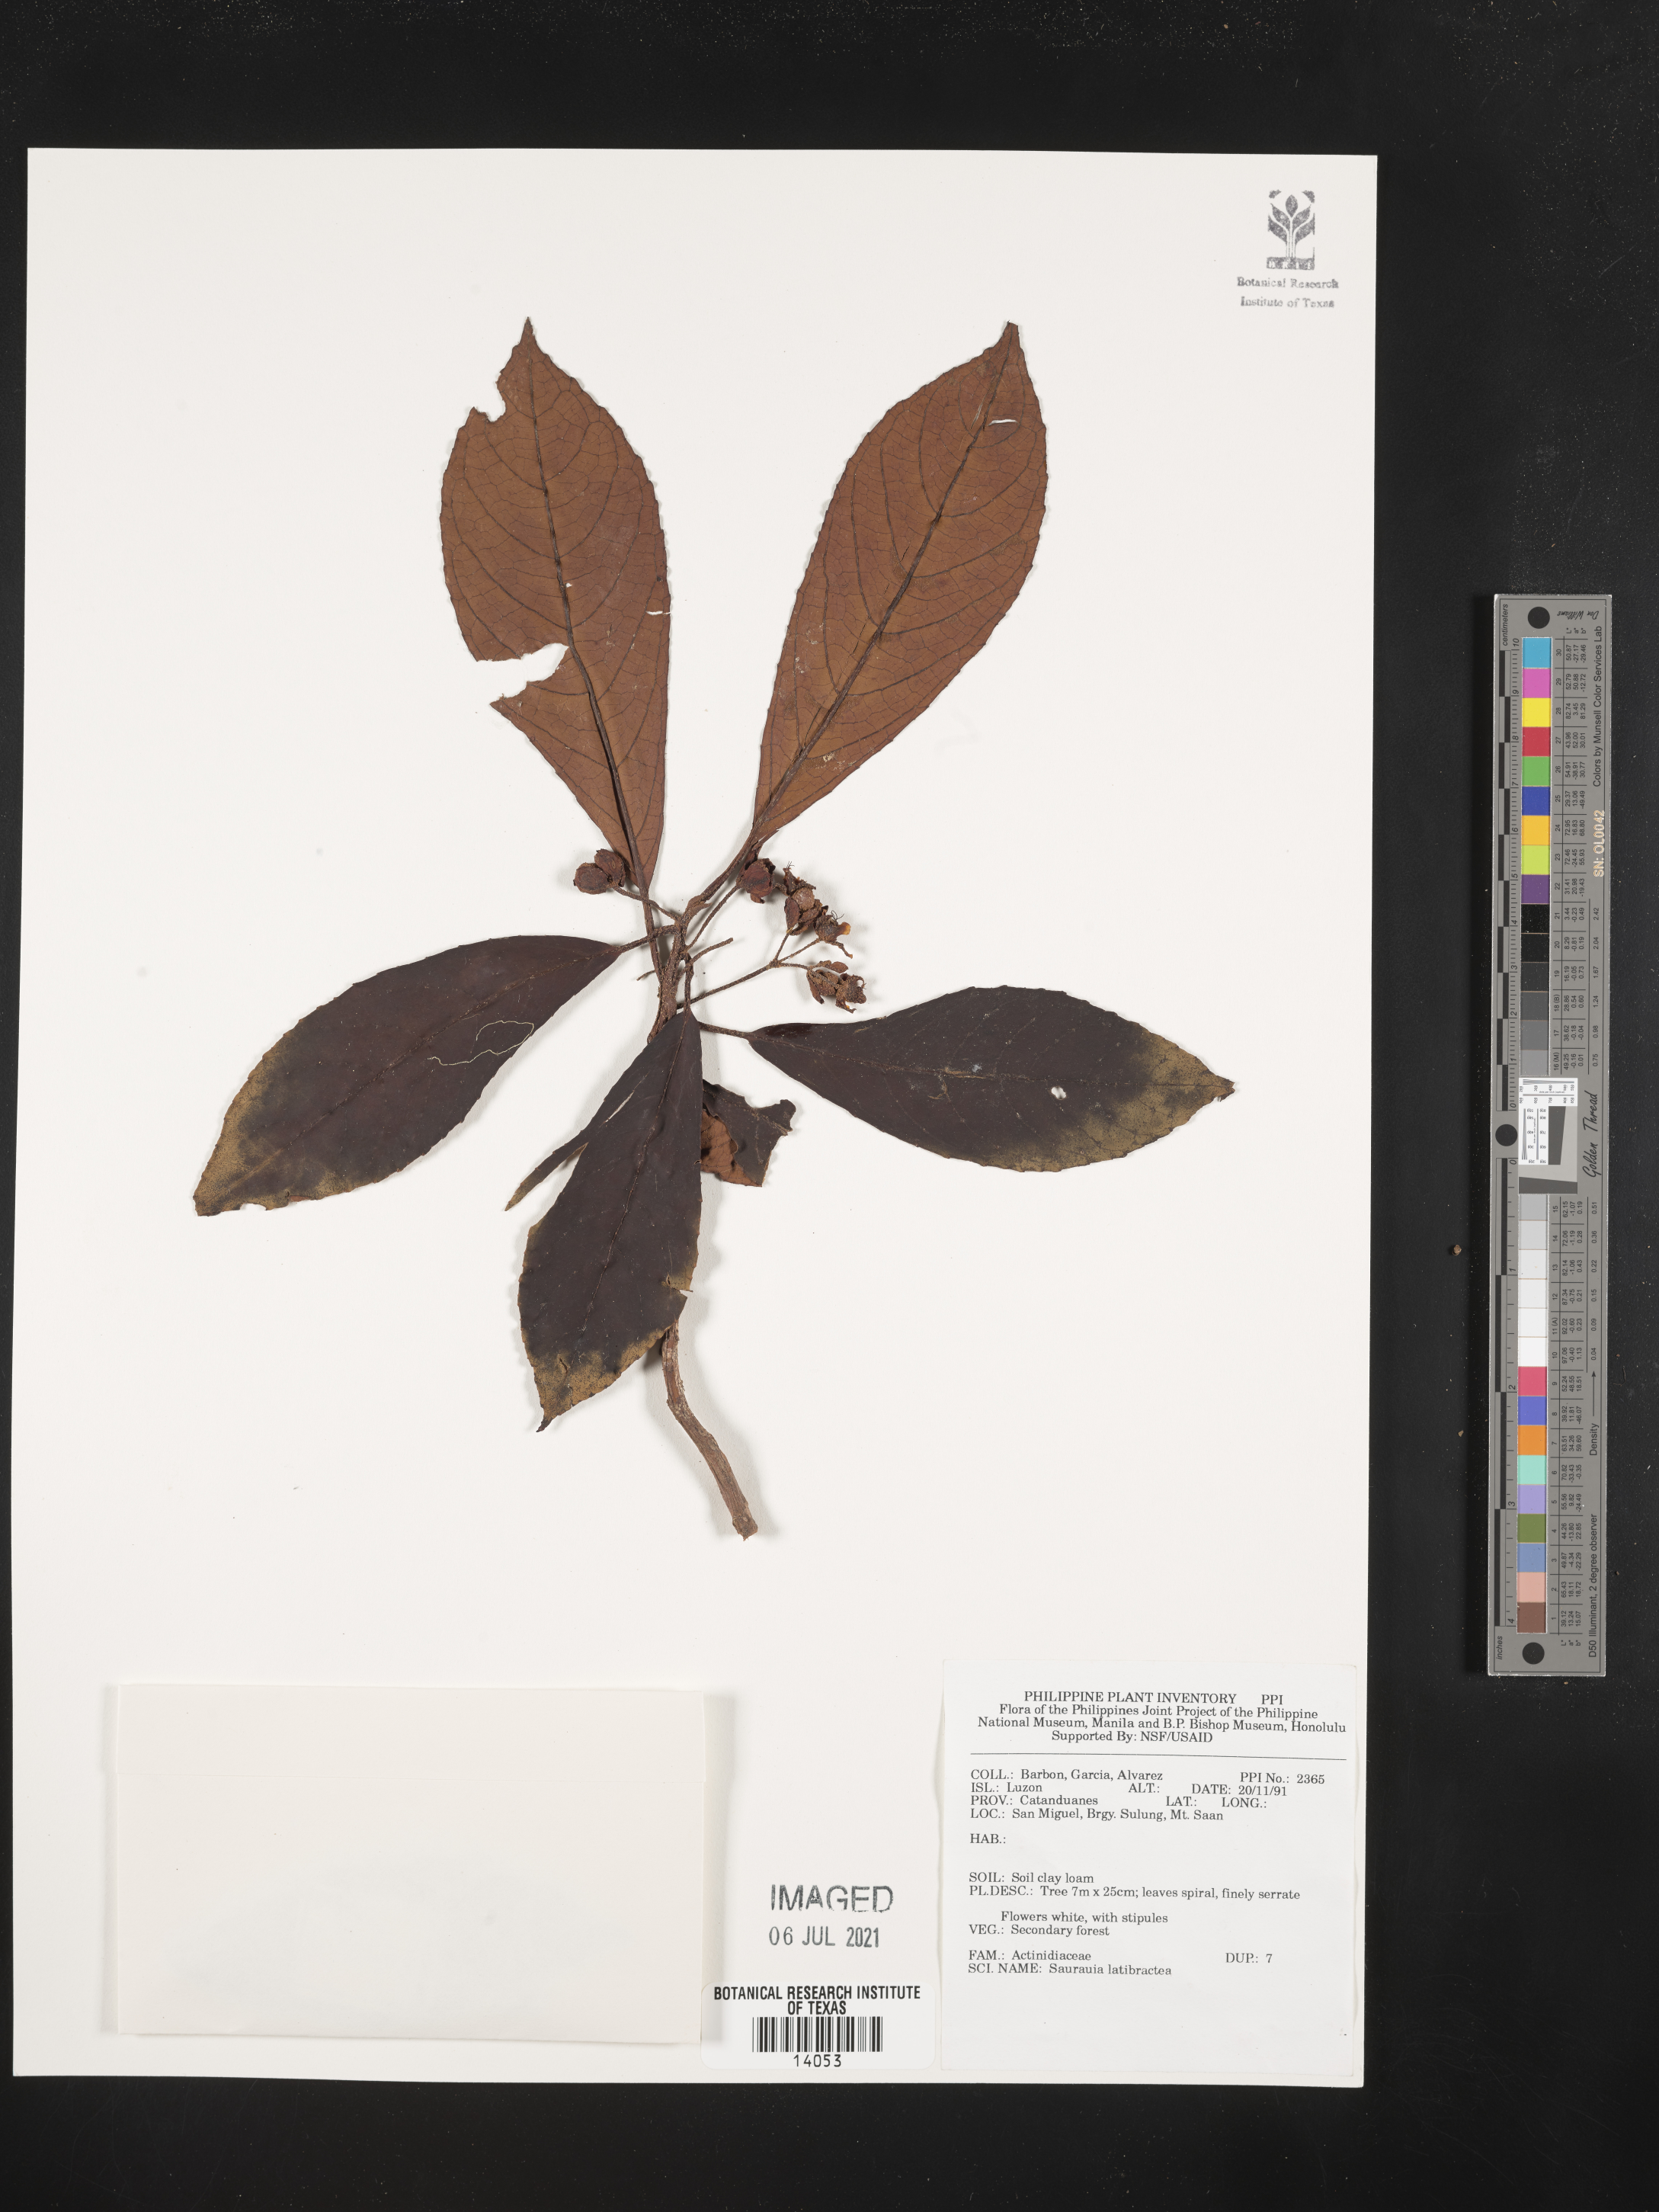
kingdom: Plantae
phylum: Tracheophyta
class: Magnoliopsida
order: Ericales
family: Actinidiaceae
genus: Saurauia
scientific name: Saurauia latibractea
